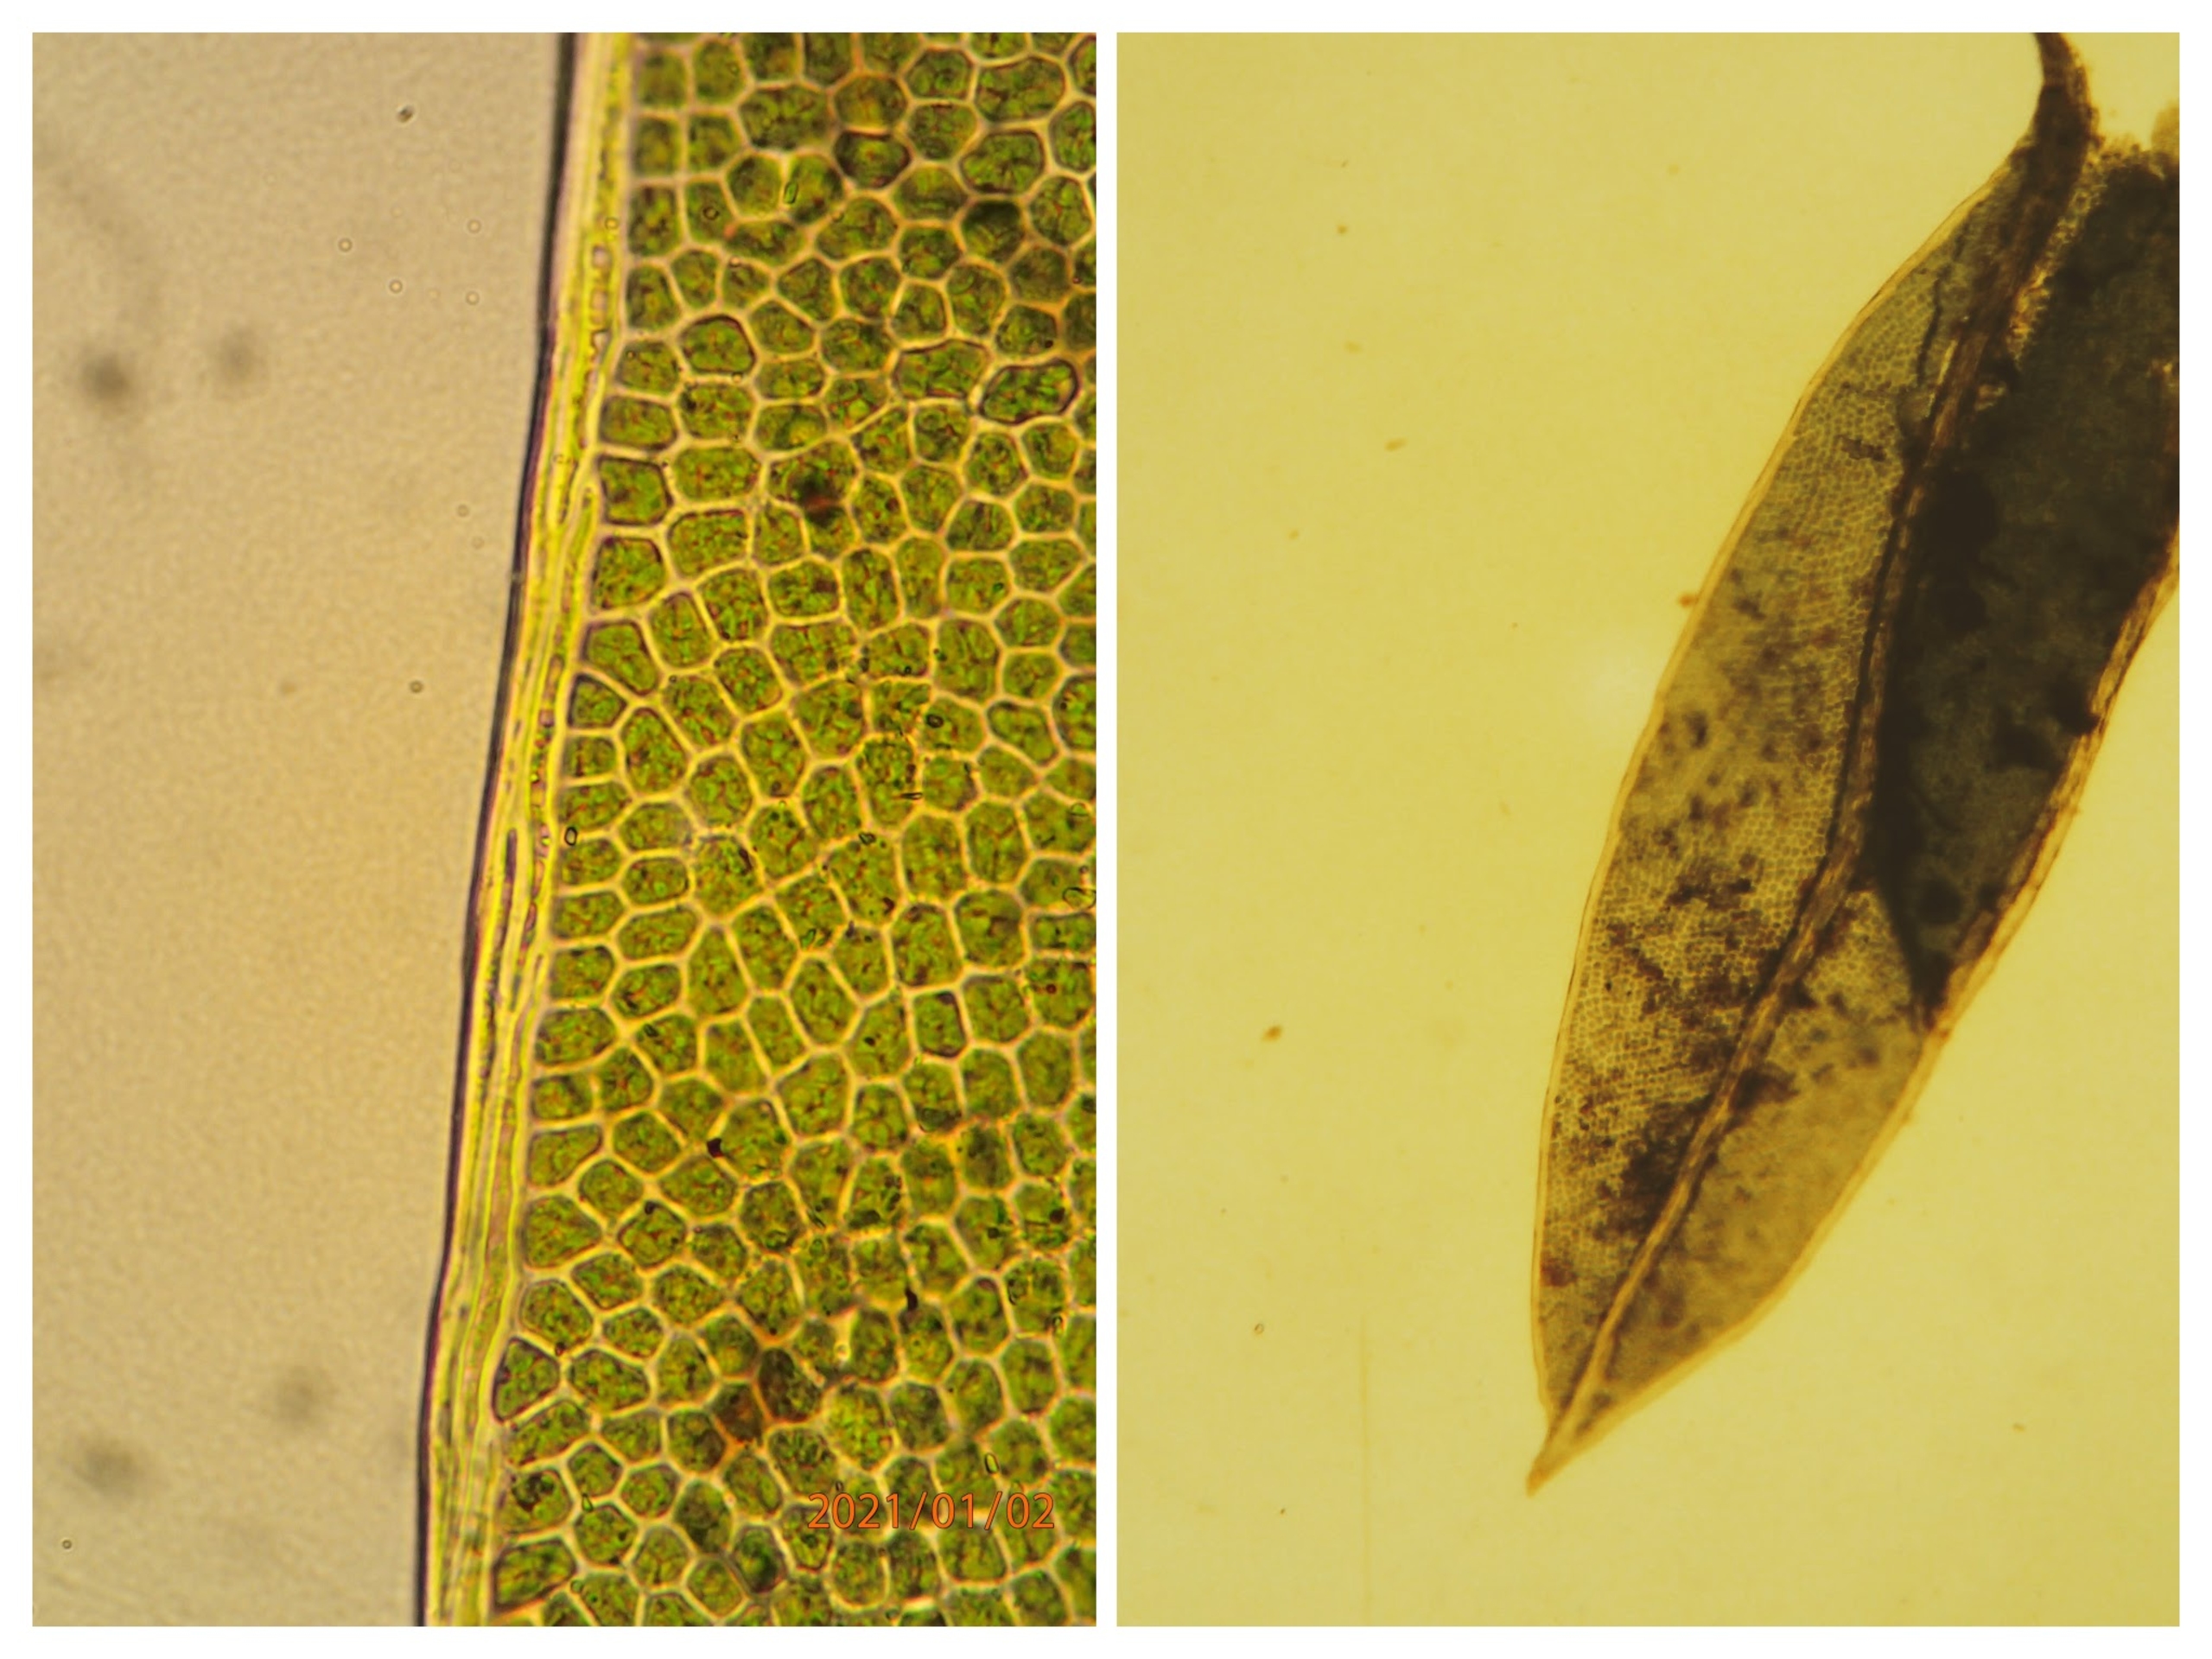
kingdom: Plantae
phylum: Bryophyta
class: Bryopsida
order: Dicranales
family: Fissidentaceae
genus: Fissidens
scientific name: Fissidens bryoides
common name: Top-rademos
